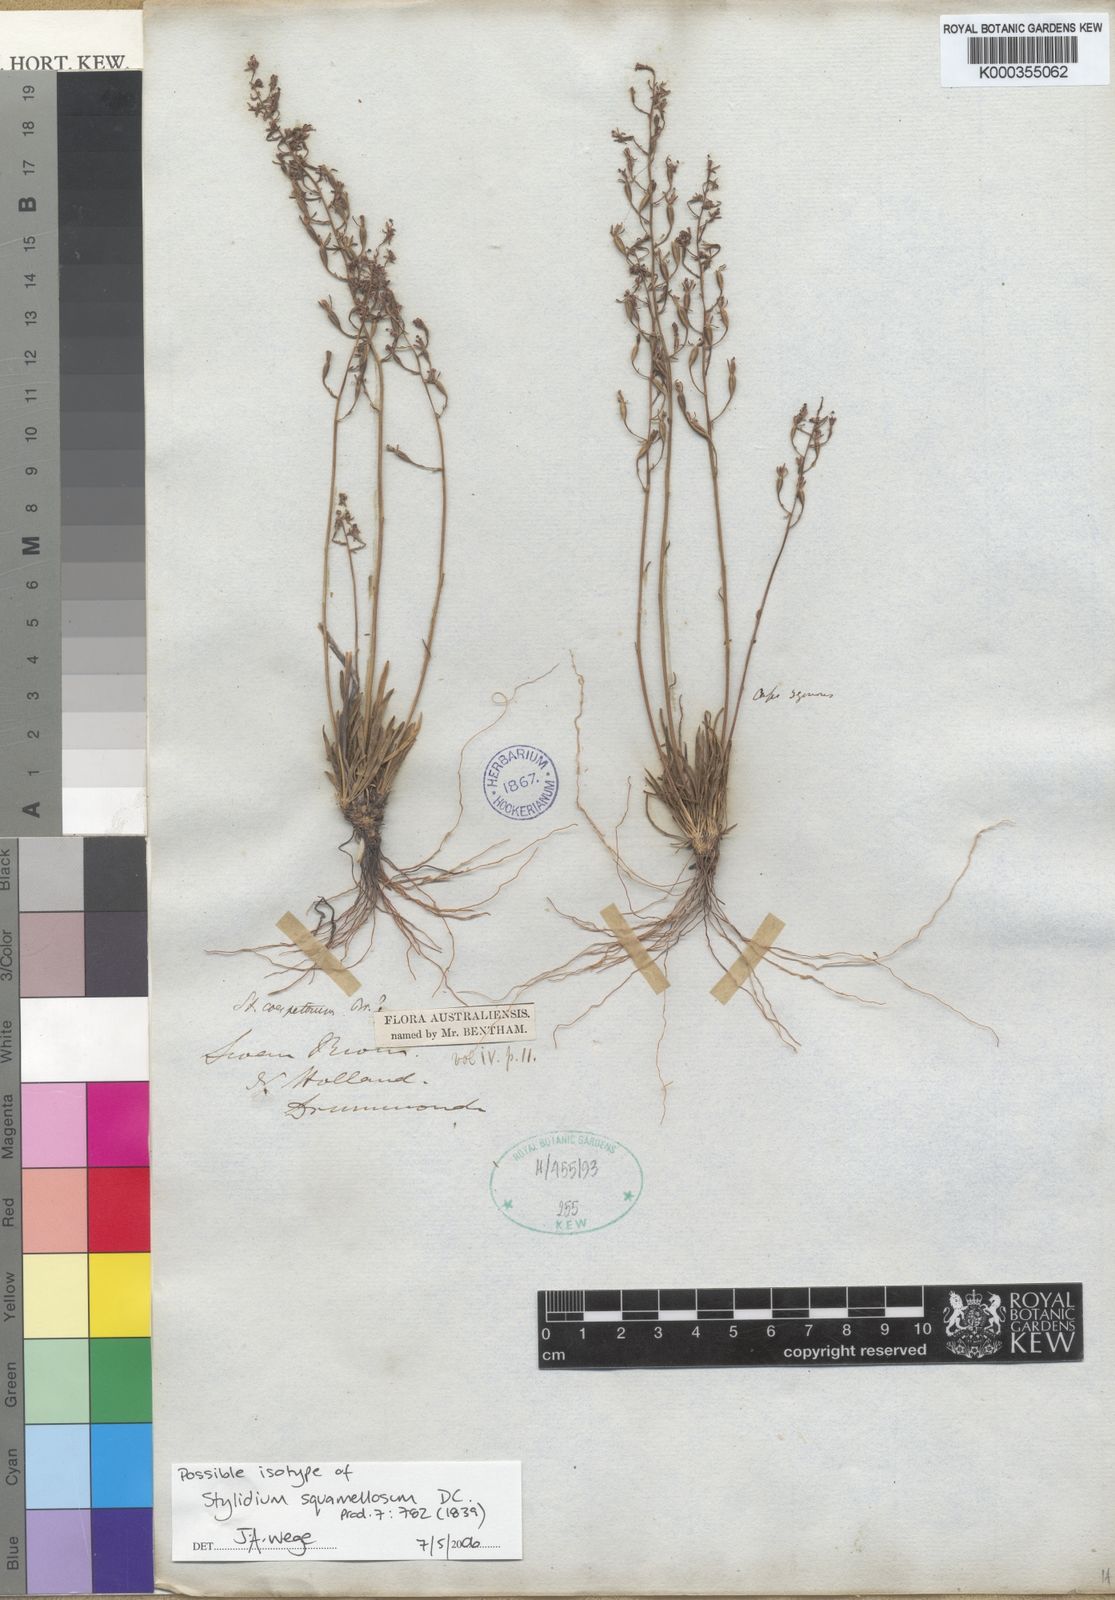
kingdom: Plantae
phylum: Tracheophyta
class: Magnoliopsida
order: Asterales
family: Stylidiaceae
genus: Stylidium
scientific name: Stylidium squamellosum
